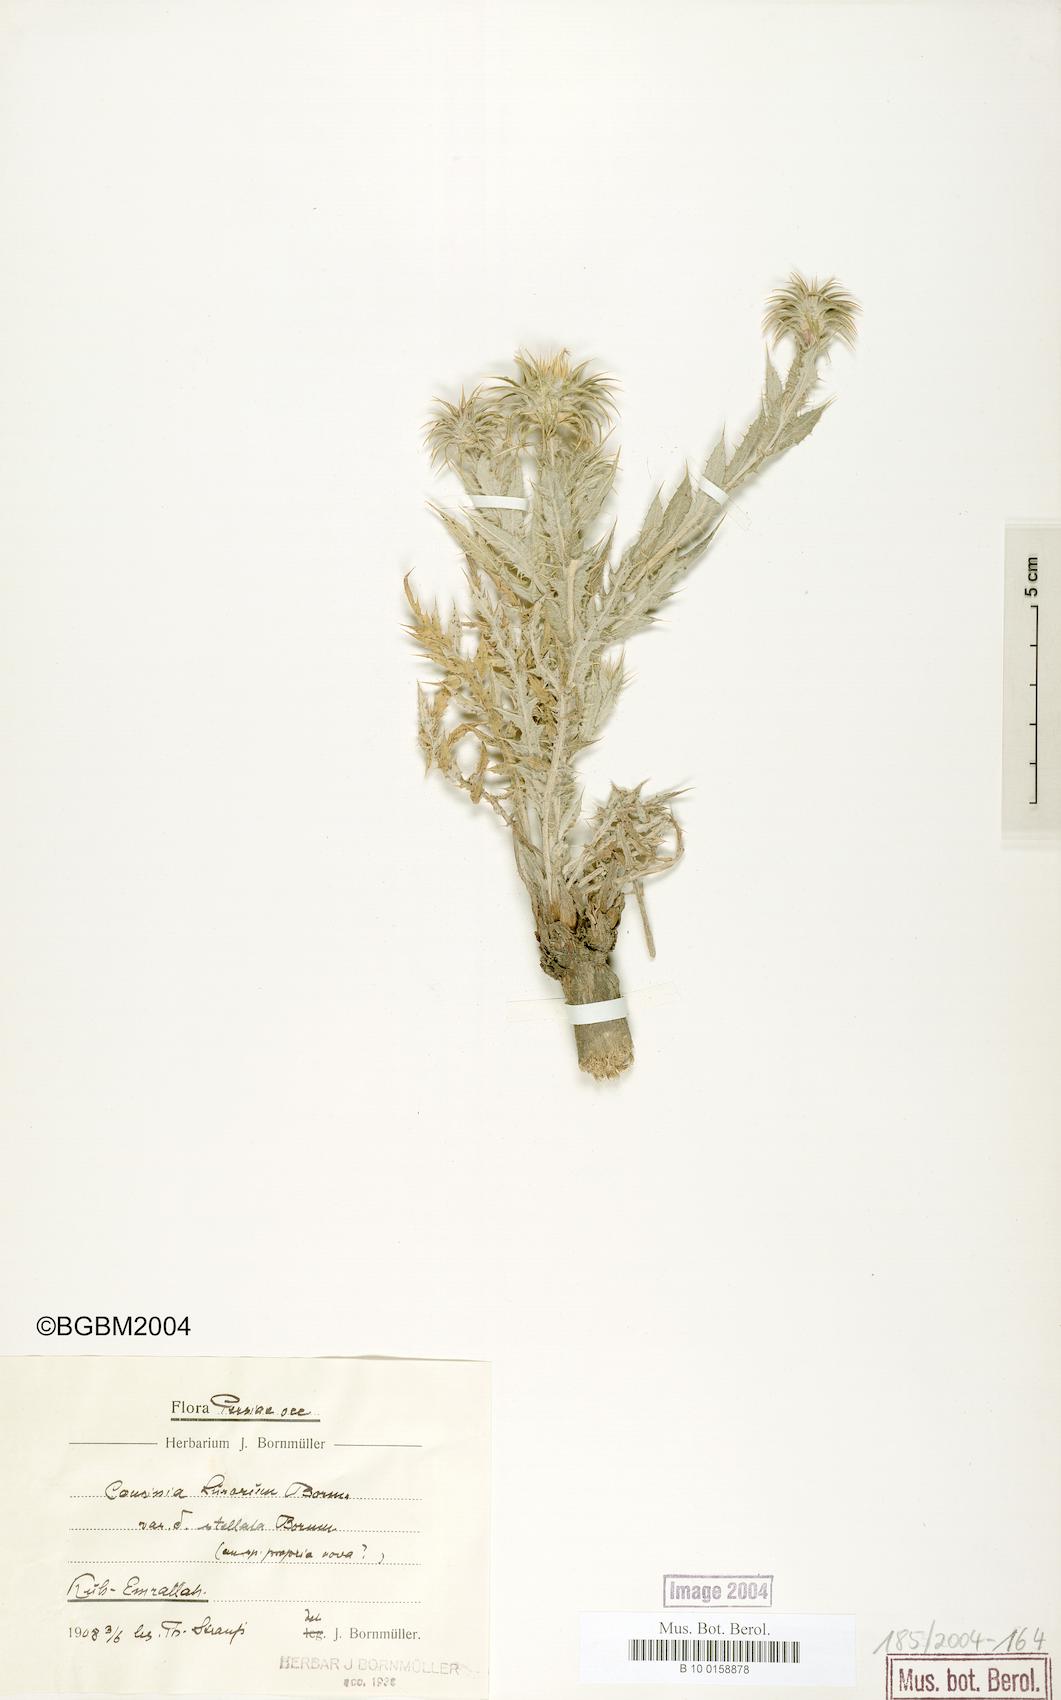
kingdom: Plantae
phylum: Tracheophyta
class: Magnoliopsida
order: Asterales
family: Asteraceae
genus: Cousinia
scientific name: Cousinia lurorum
